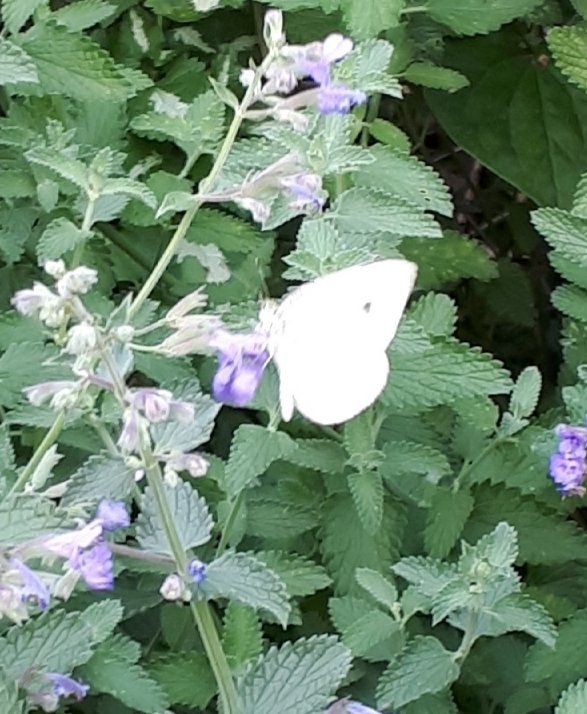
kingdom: Animalia
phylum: Arthropoda
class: Insecta
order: Lepidoptera
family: Pieridae
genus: Pieris
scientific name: Pieris rapae
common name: Cabbage White
